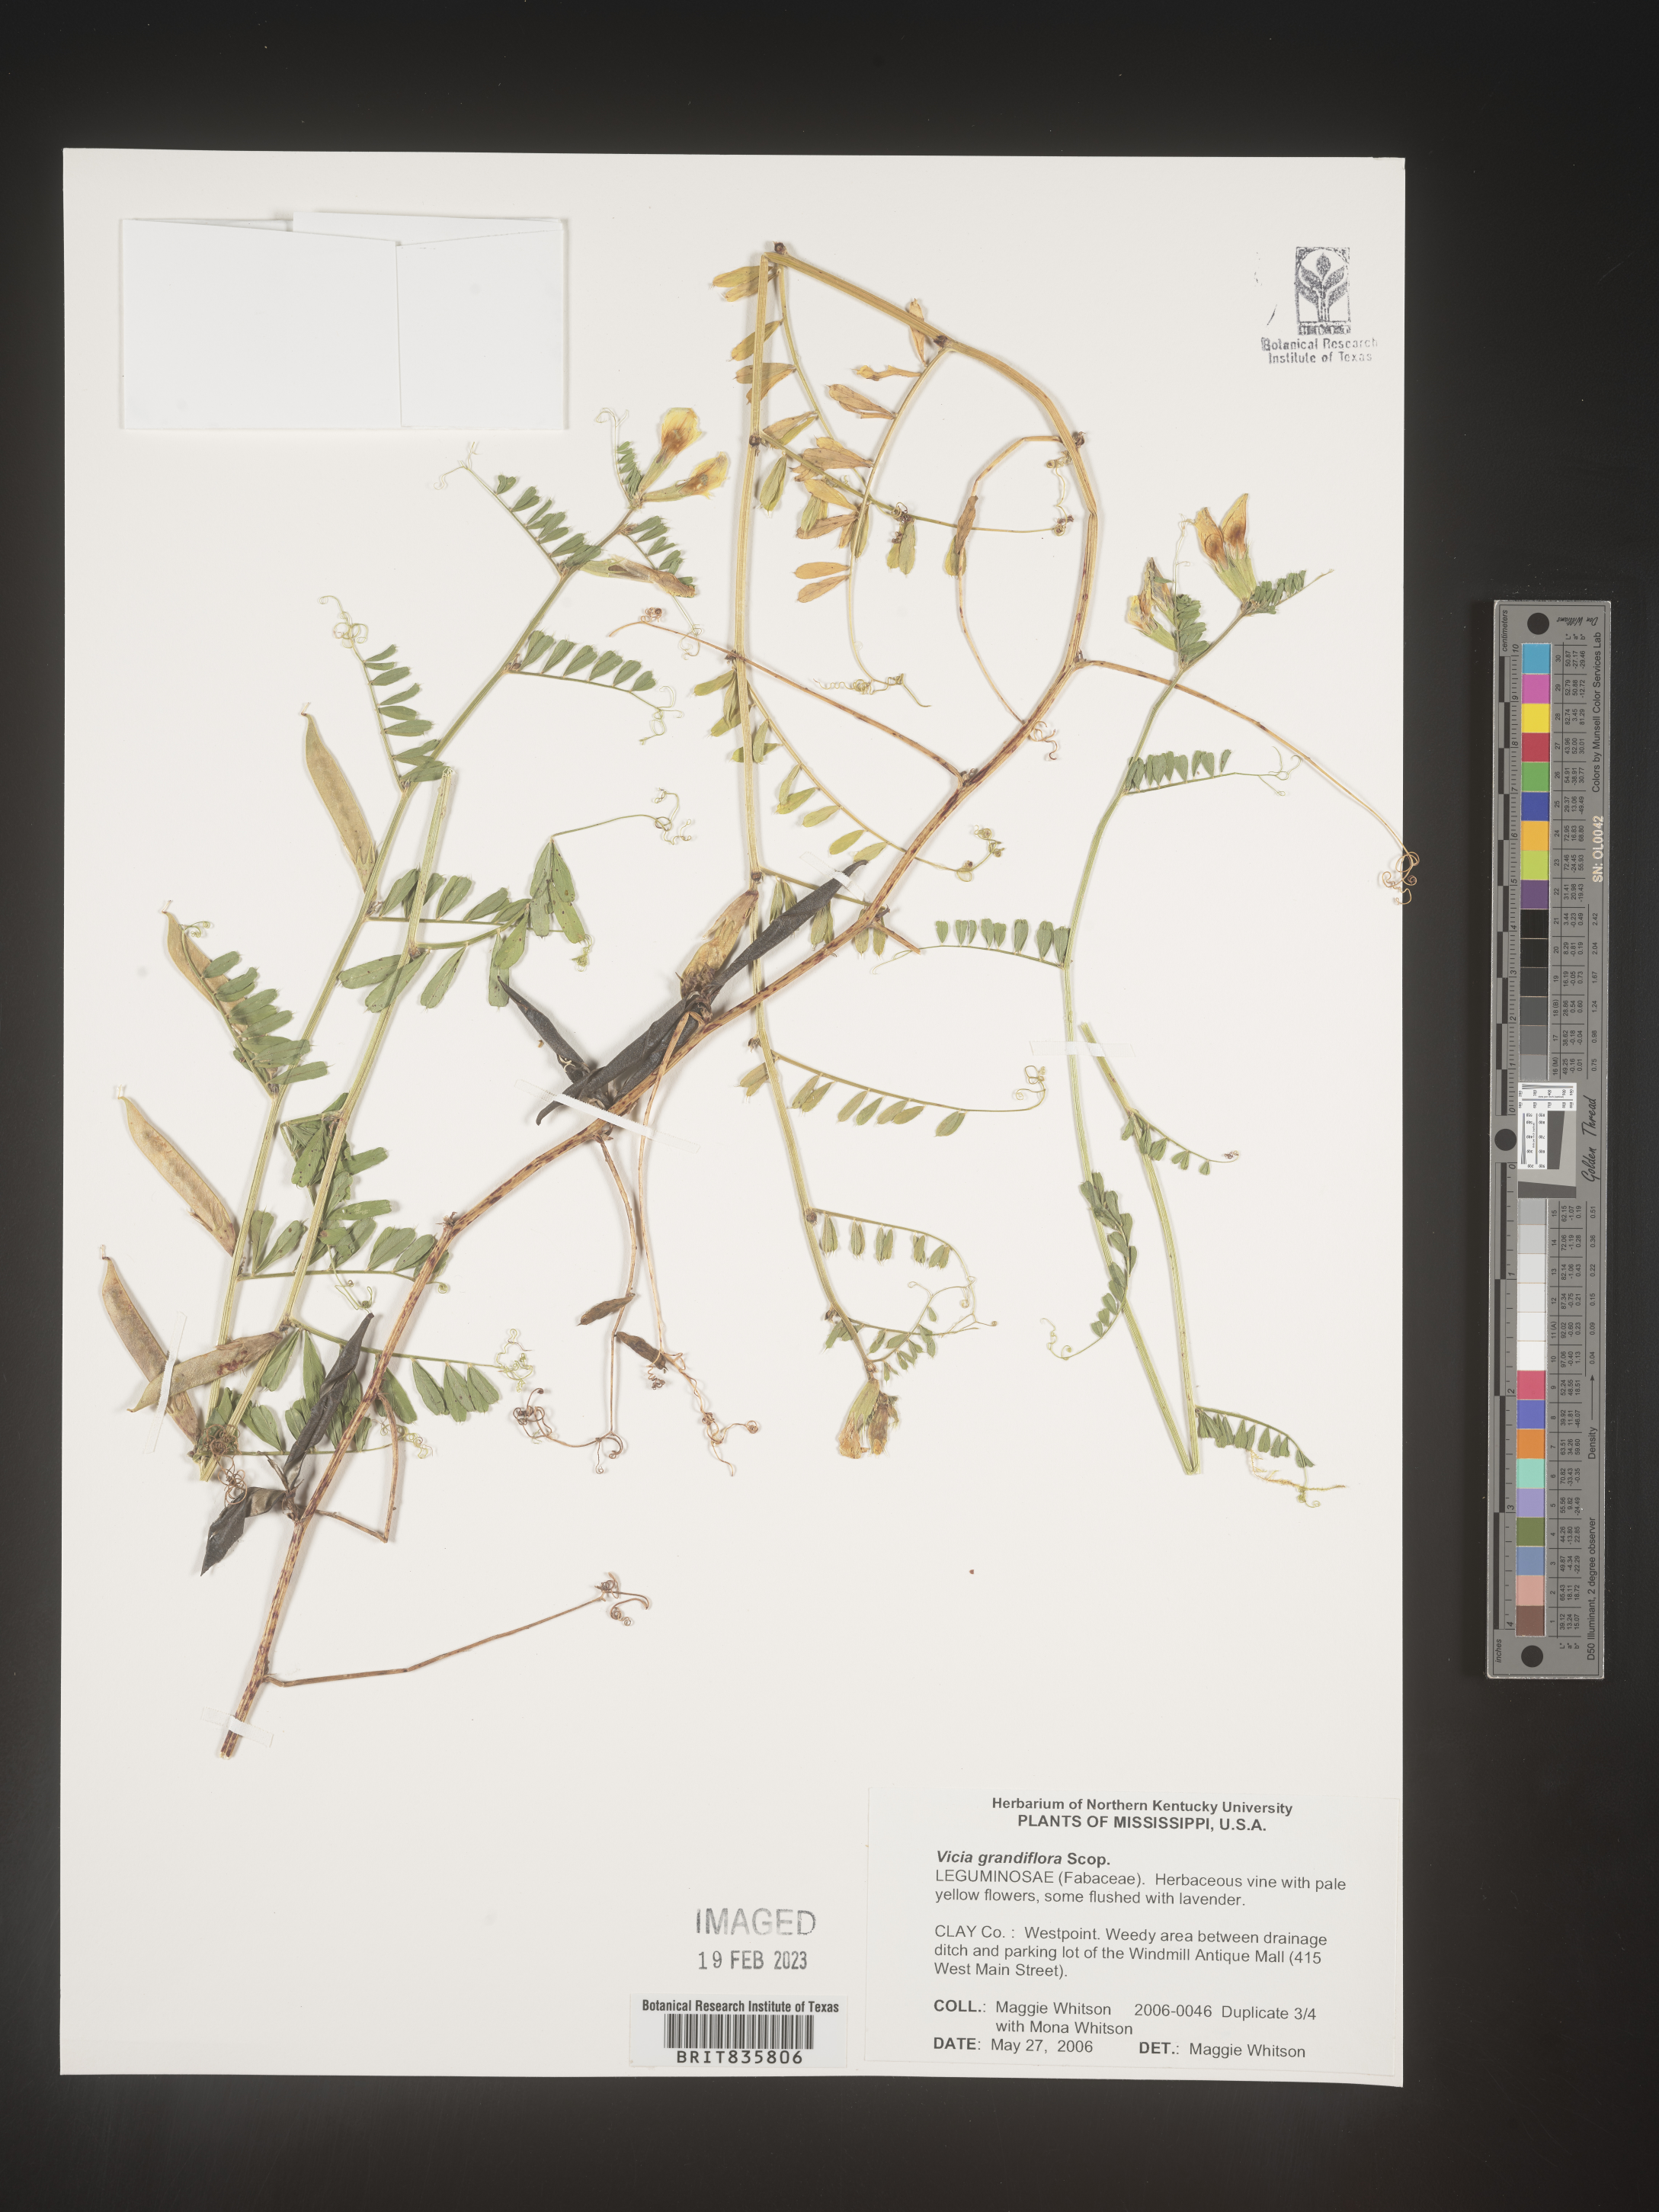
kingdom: Plantae
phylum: Tracheophyta
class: Magnoliopsida
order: Fabales
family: Fabaceae
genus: Vicia
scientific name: Vicia grandiflora
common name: Large yellow vetch
